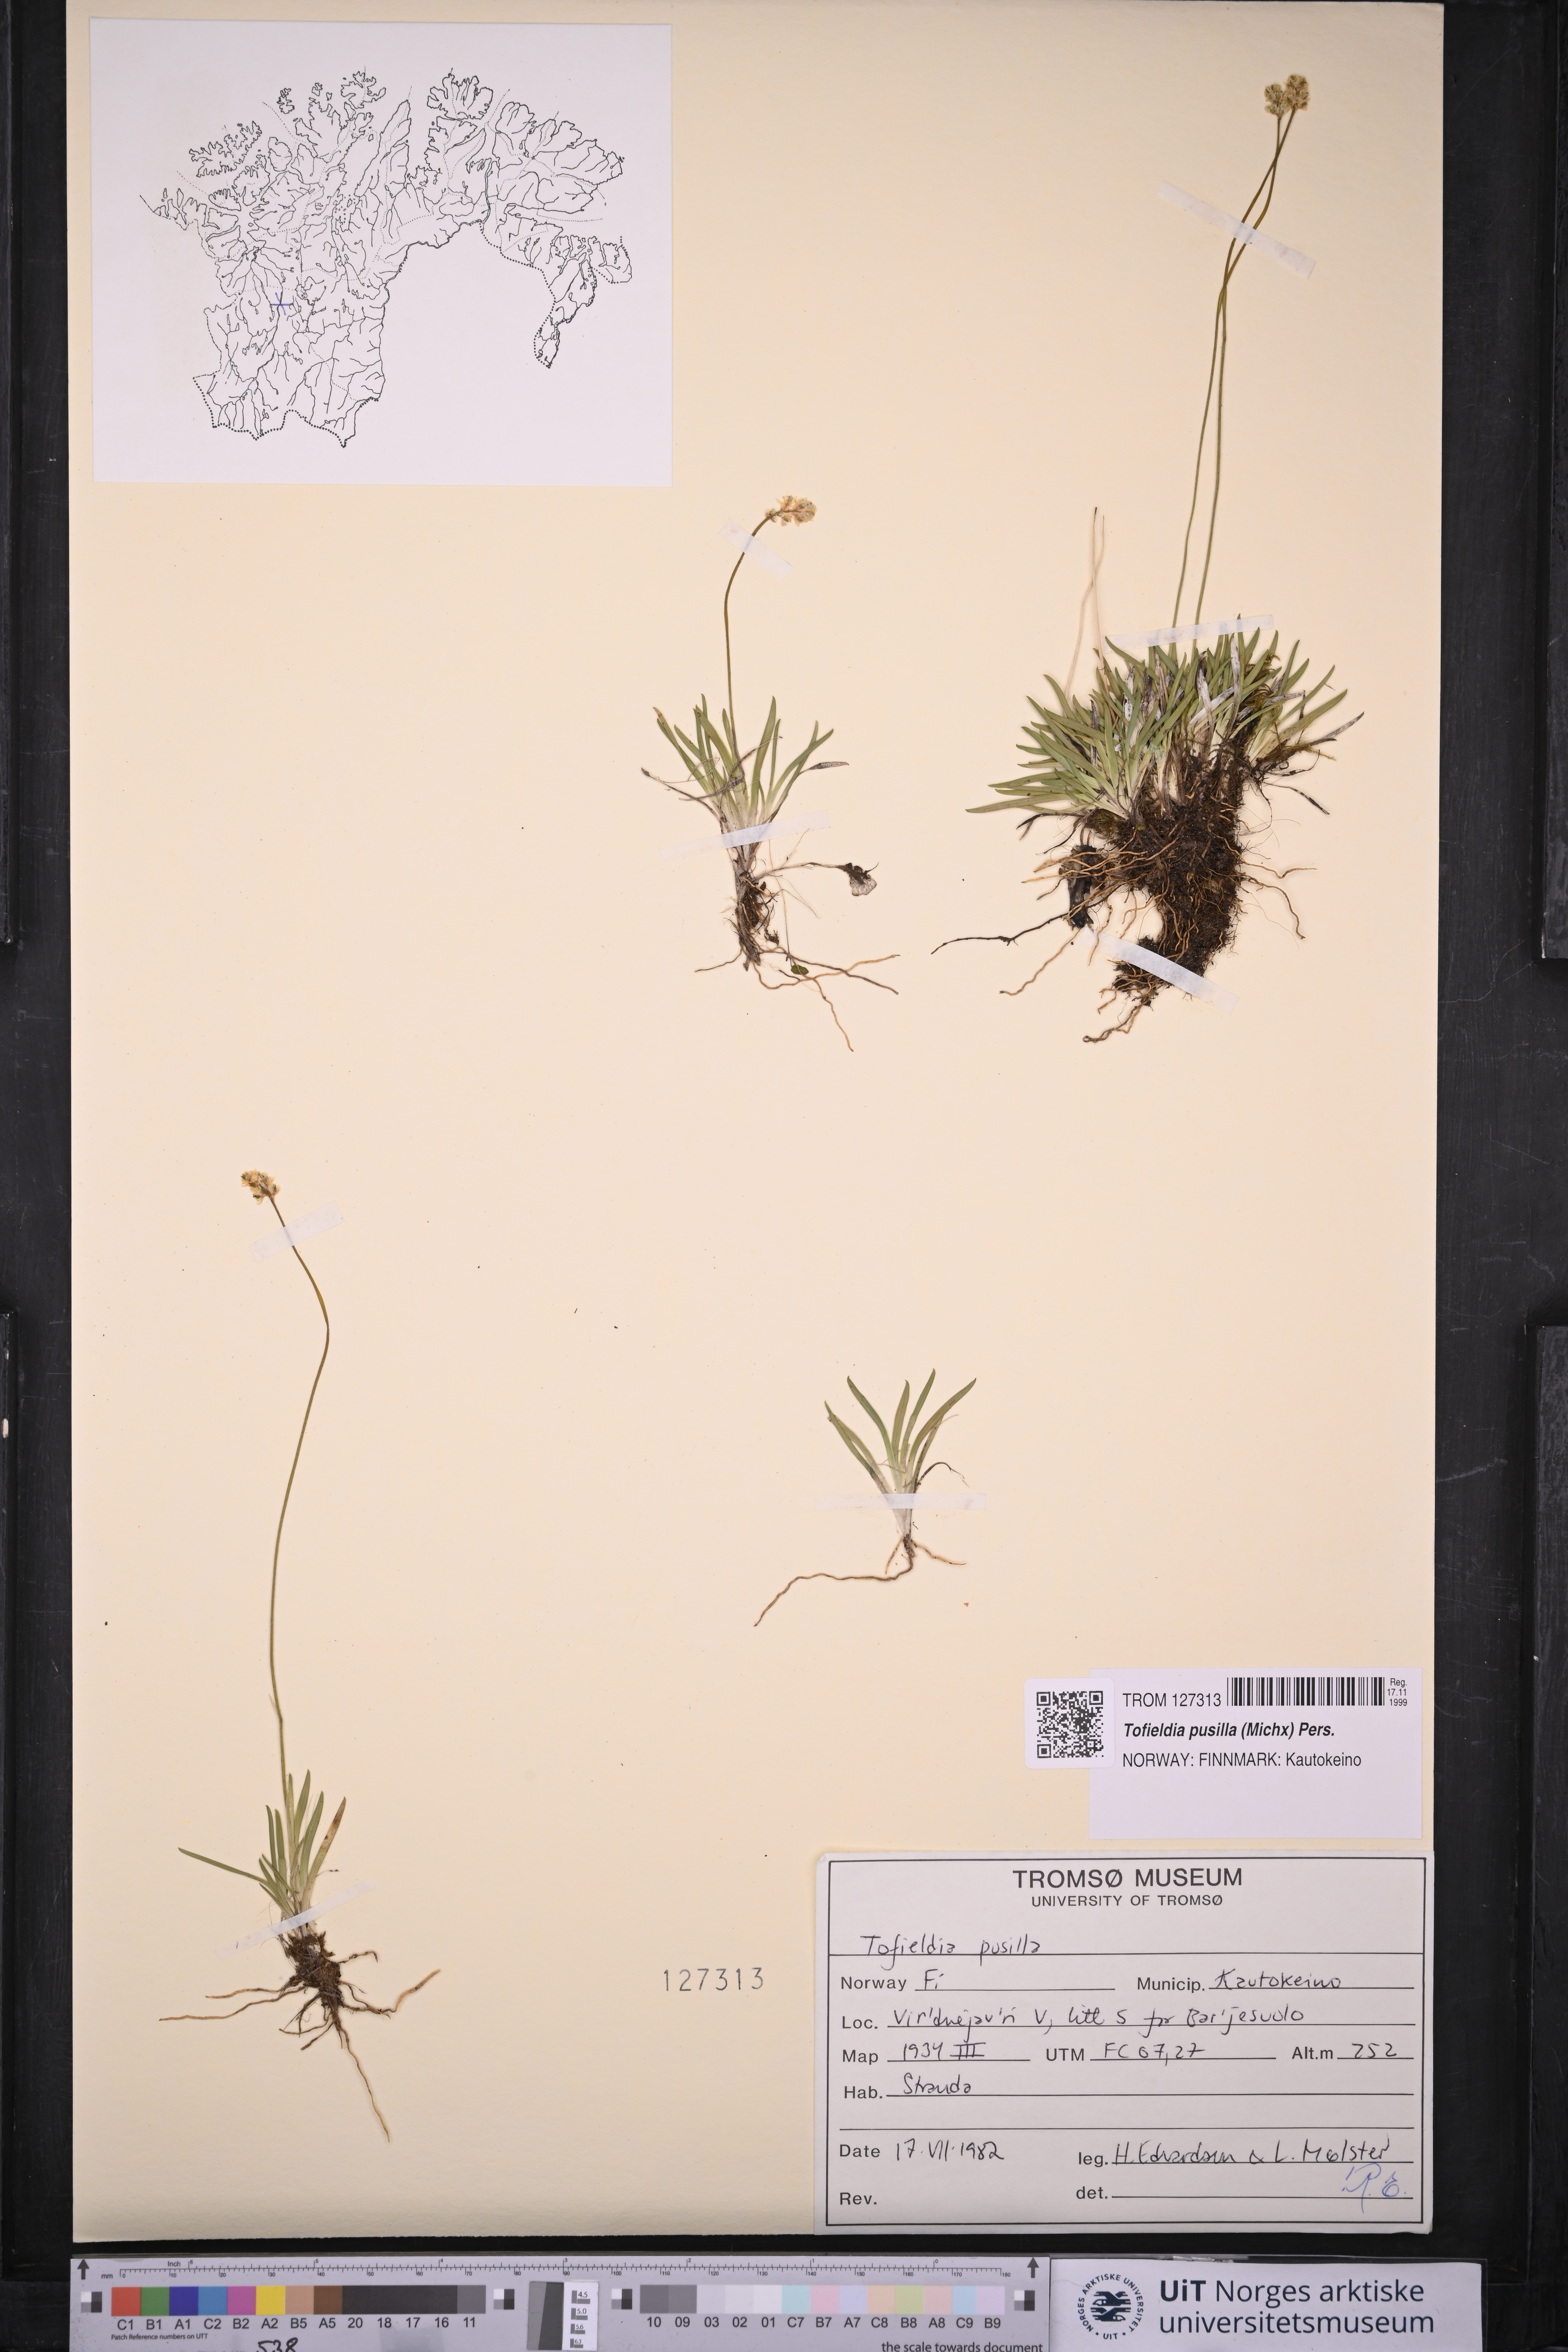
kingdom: Plantae
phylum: Tracheophyta
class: Liliopsida
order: Alismatales
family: Tofieldiaceae
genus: Tofieldia
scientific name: Tofieldia pusilla
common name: Scottish false asphodel
